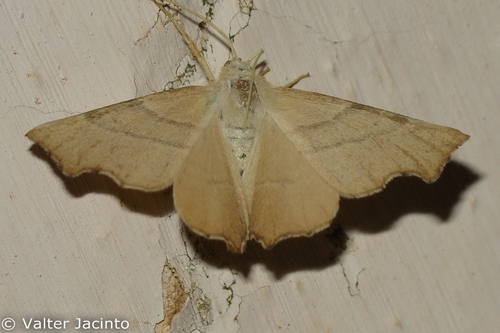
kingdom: Animalia
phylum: Arthropoda
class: Insecta
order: Lepidoptera
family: Geometridae
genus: Ennomos
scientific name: Ennomos quercaria
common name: Clouded august thorn
